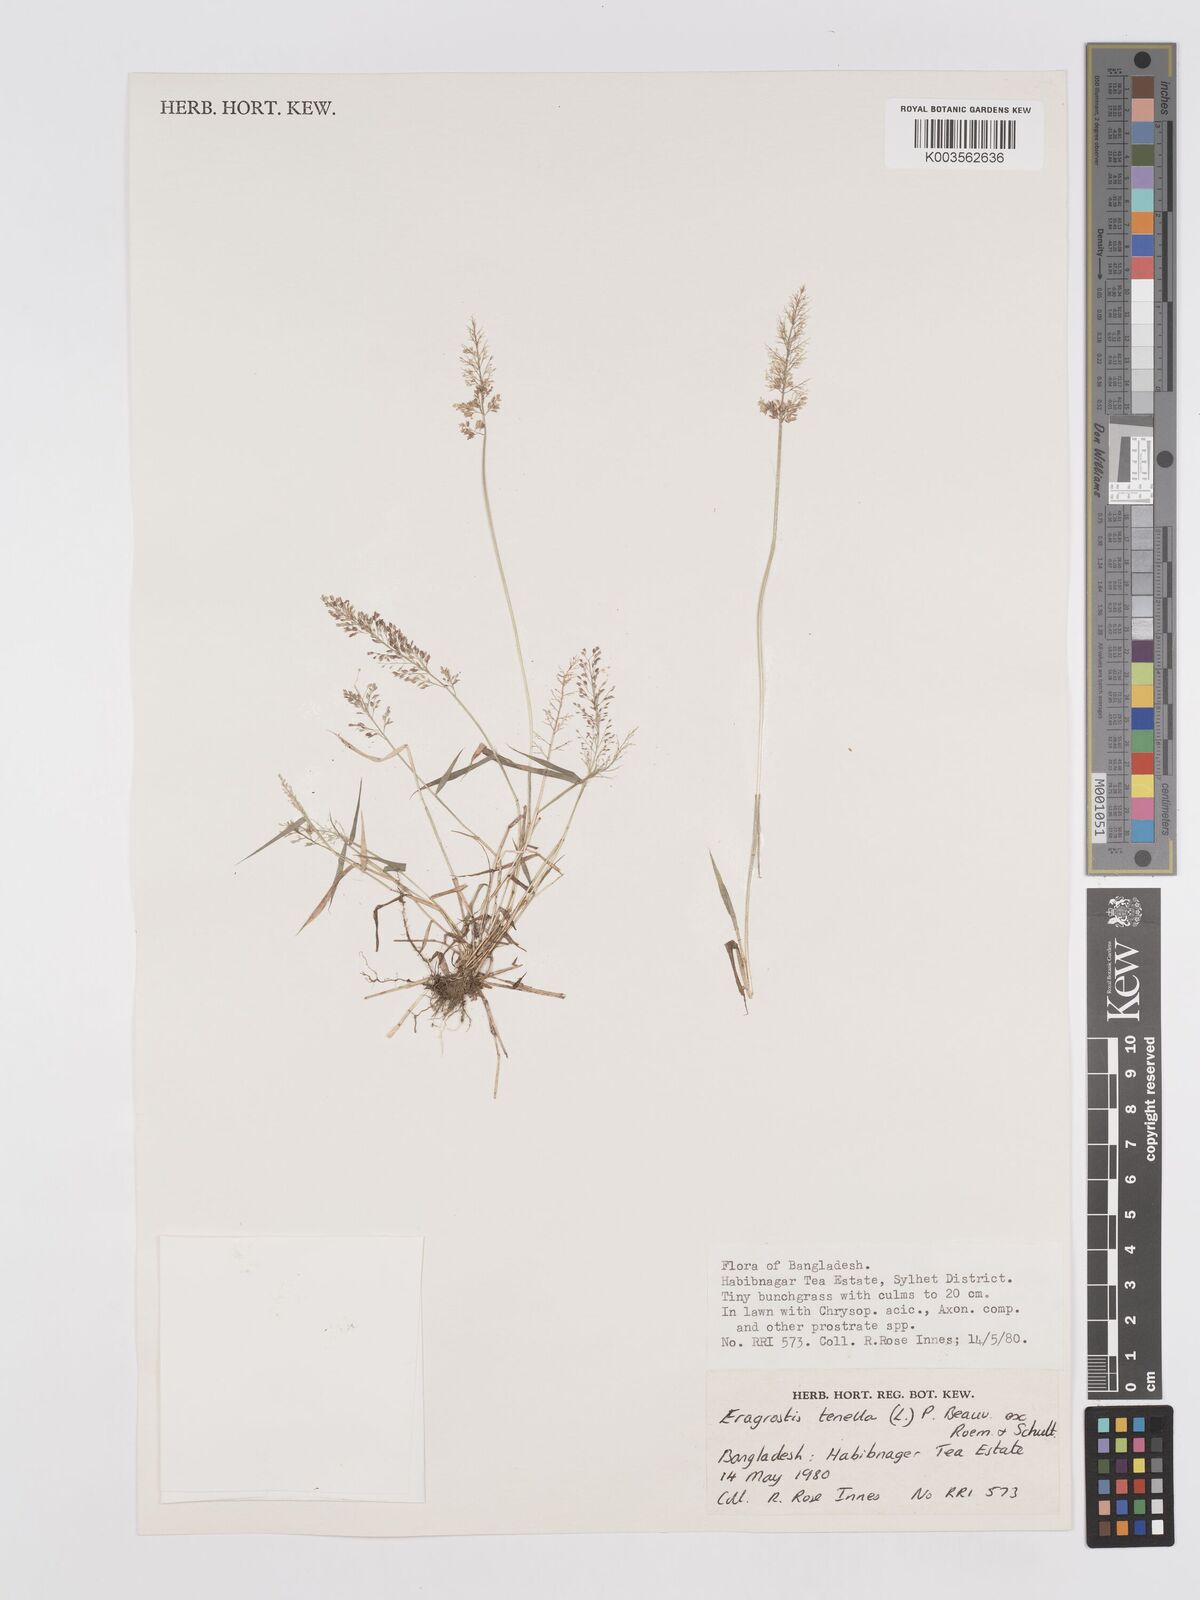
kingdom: Plantae
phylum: Tracheophyta
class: Liliopsida
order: Poales
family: Poaceae
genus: Eragrostis
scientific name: Eragrostis tenella
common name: Japanese lovegrass
